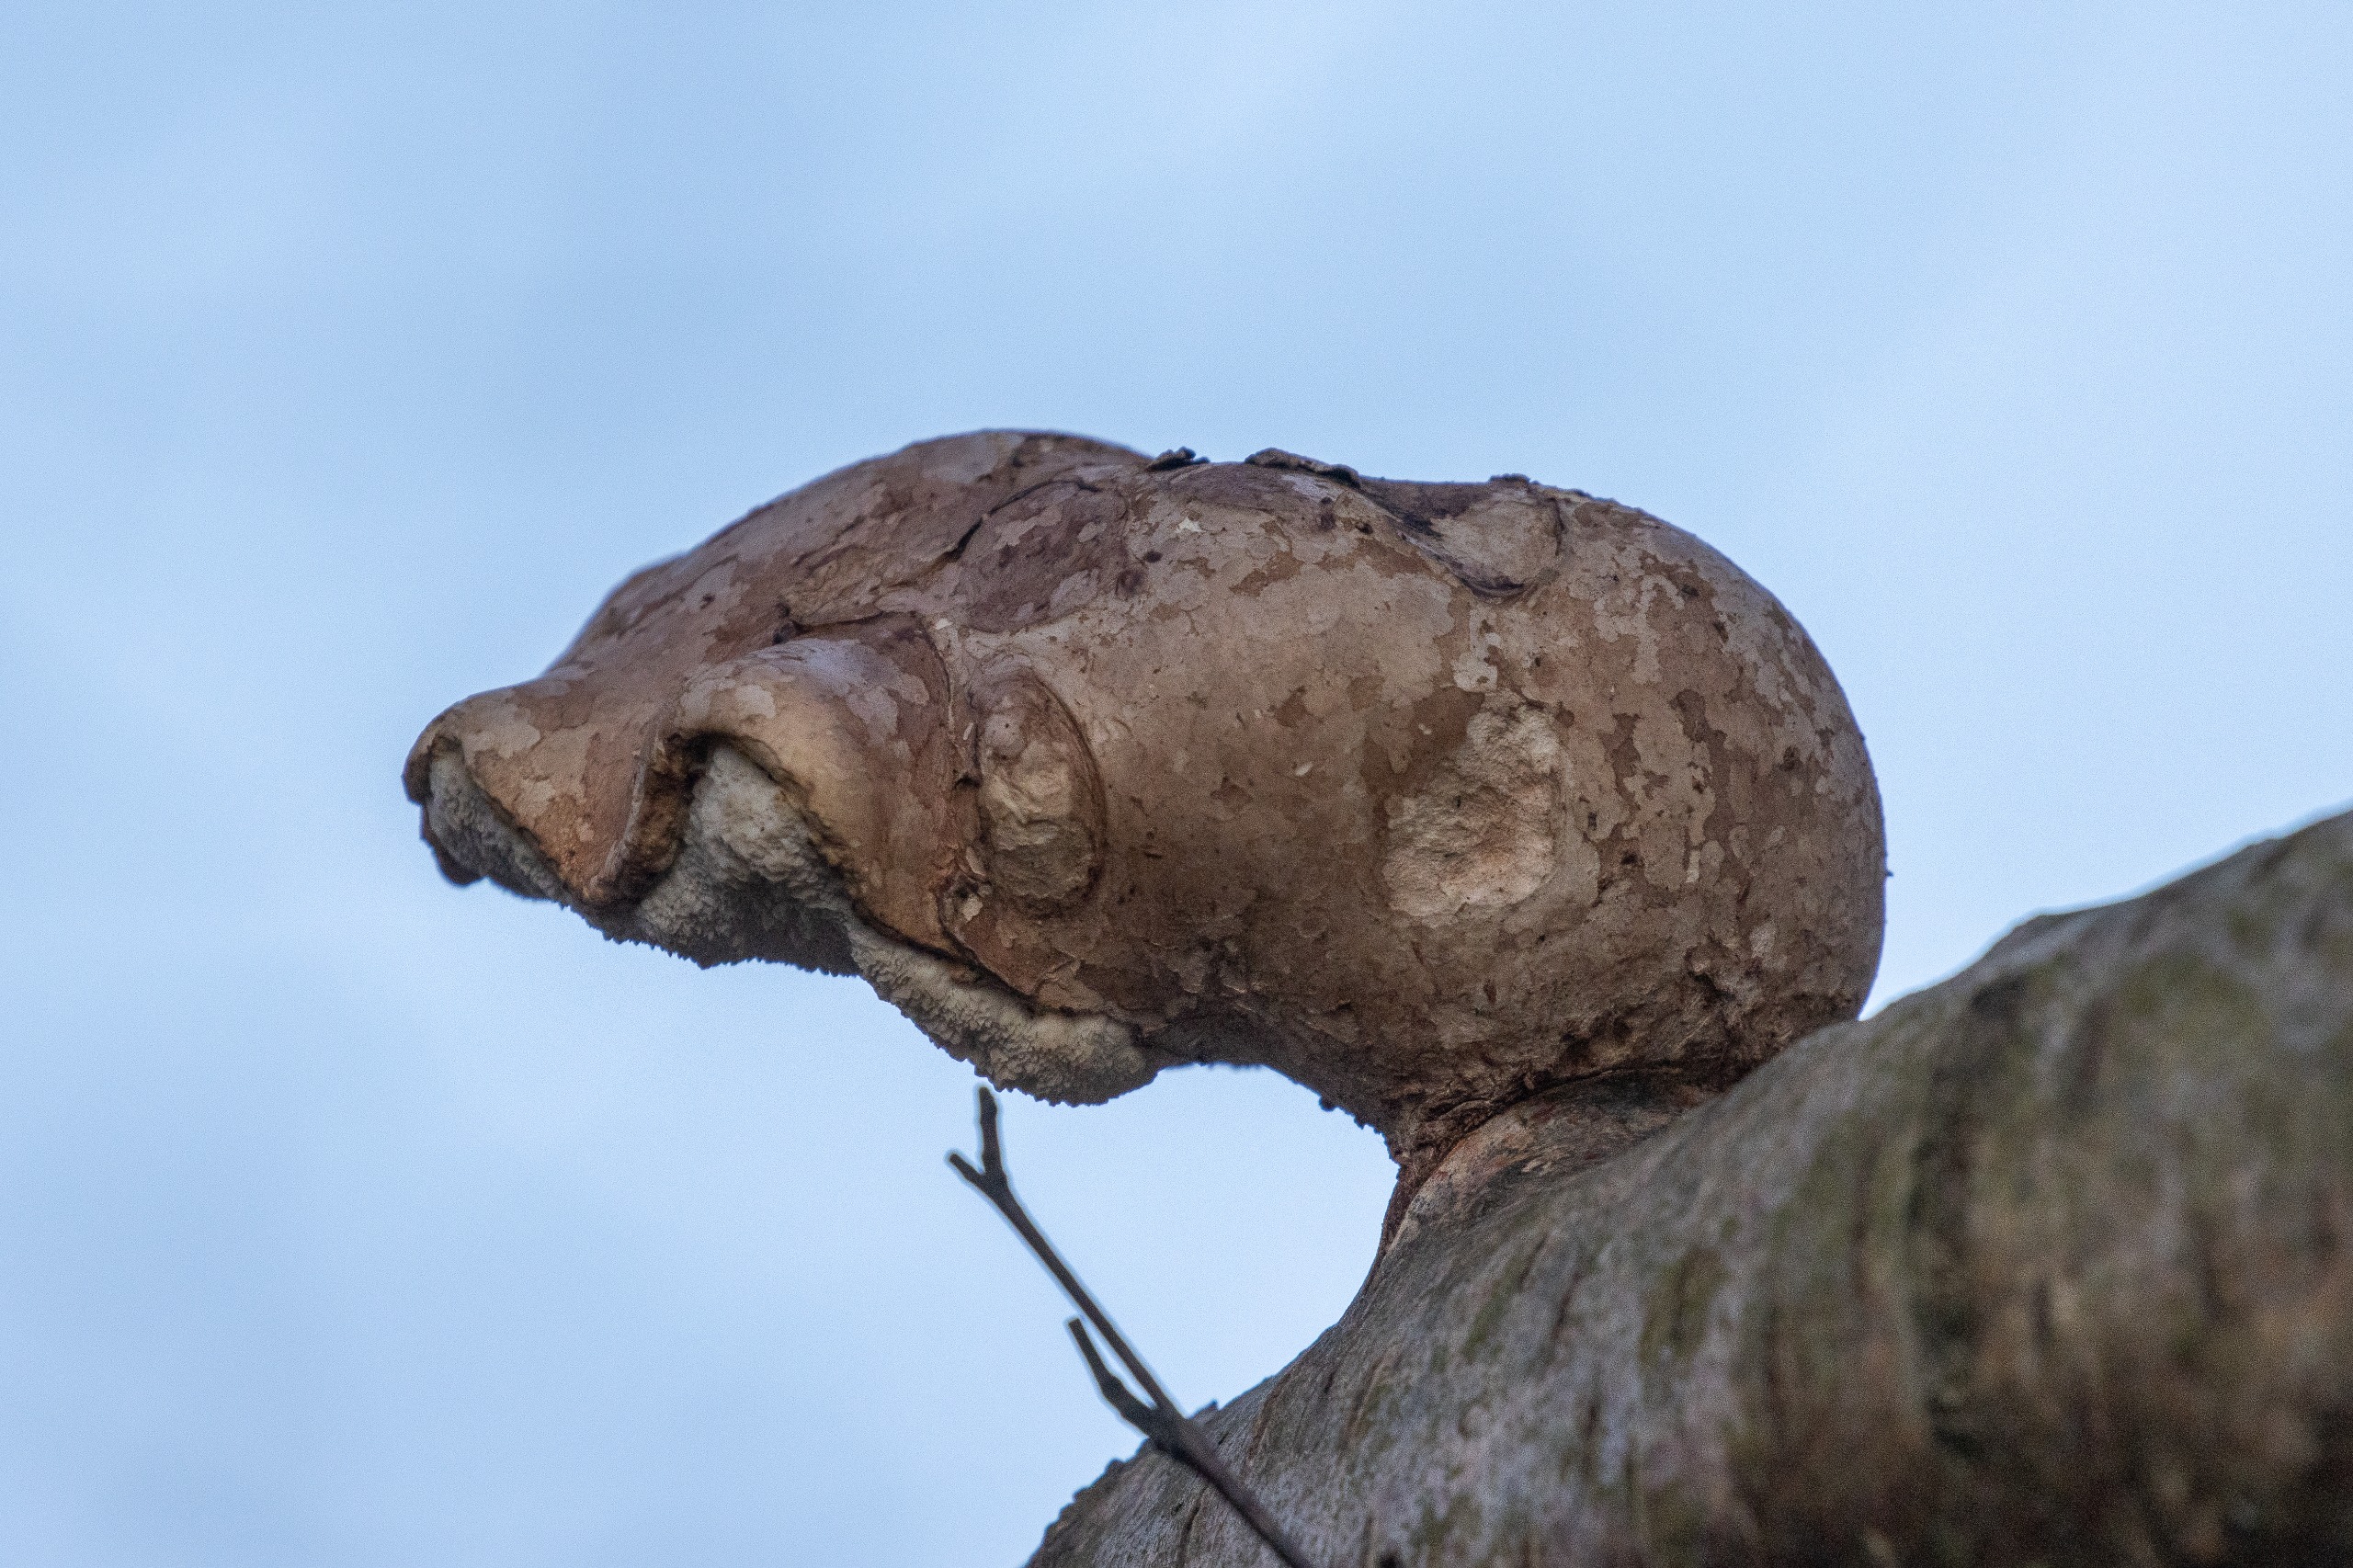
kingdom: Fungi
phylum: Basidiomycota
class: Agaricomycetes
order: Polyporales
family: Fomitopsidaceae
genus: Fomitopsis
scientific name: Fomitopsis betulina
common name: Birkeporesvamp
